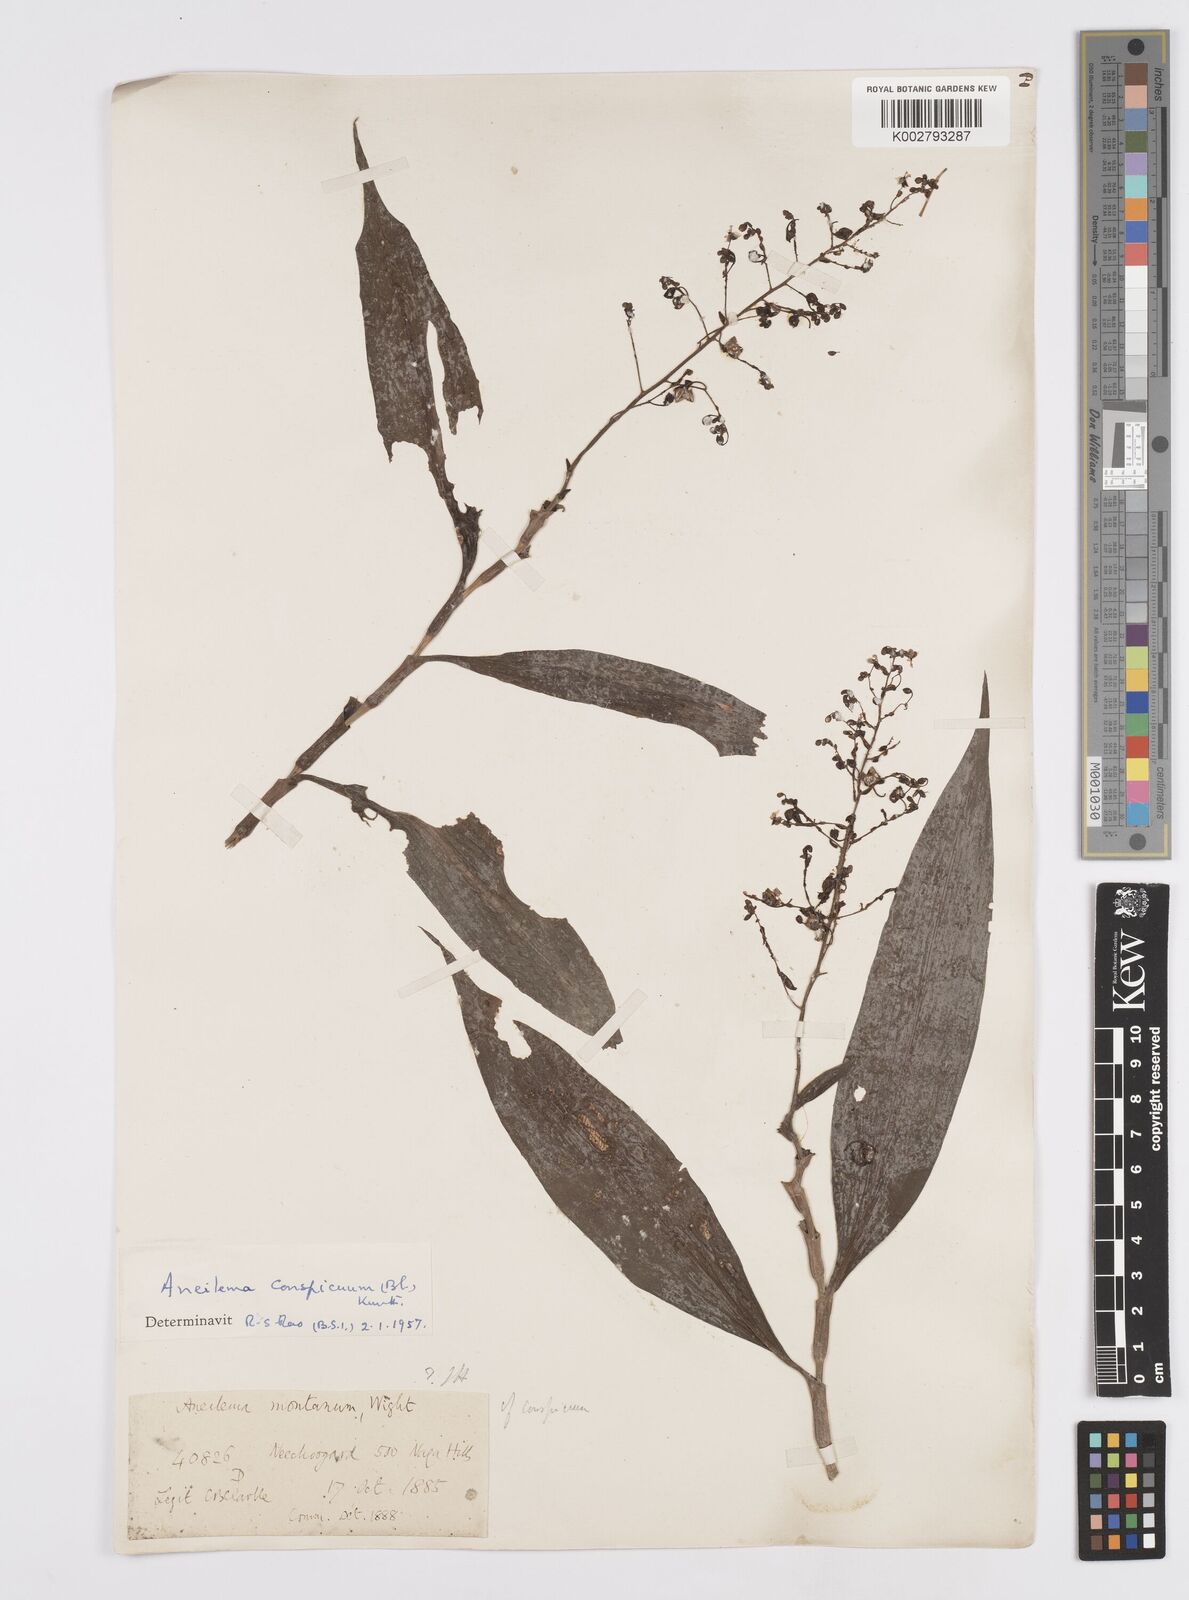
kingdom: Plantae
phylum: Tracheophyta
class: Liliopsida
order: Commelinales
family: Commelinaceae
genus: Murdannia
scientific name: Murdannia
